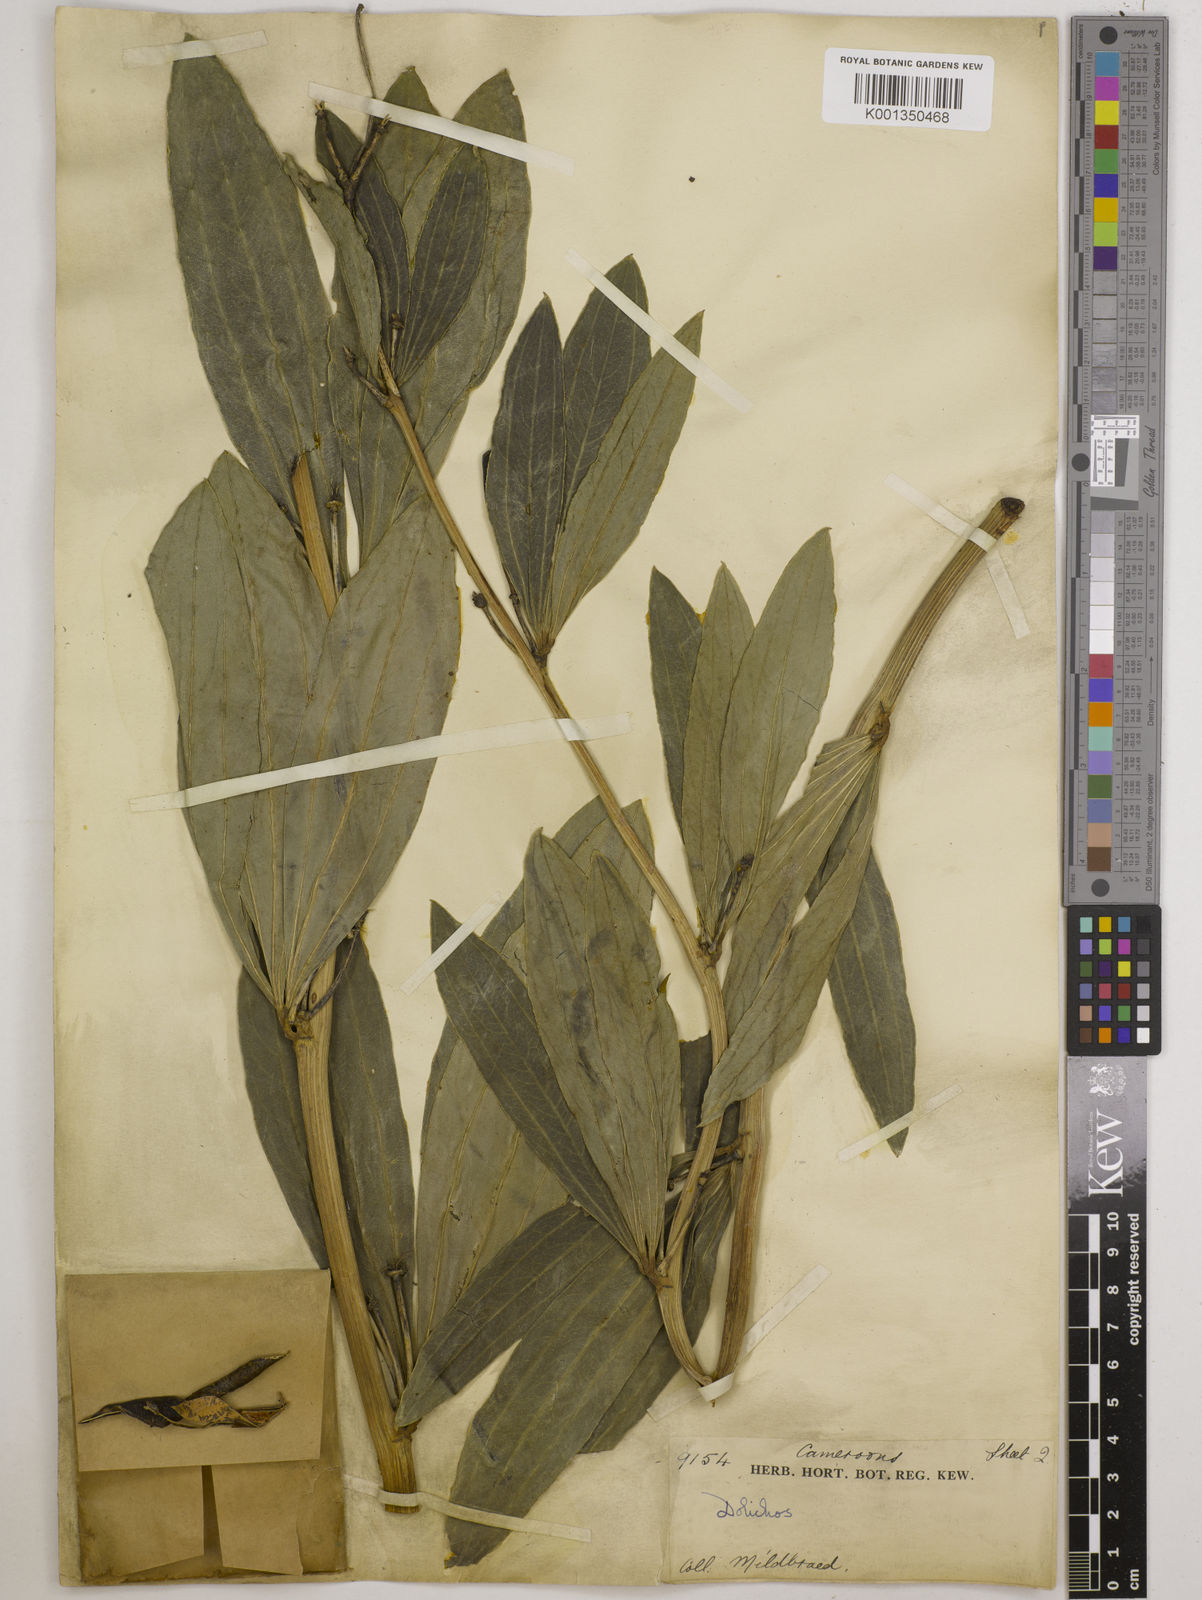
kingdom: Plantae
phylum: Tracheophyta
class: Magnoliopsida
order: Fabales
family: Fabaceae
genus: Dolichos
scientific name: Dolichos schweinfurthii
